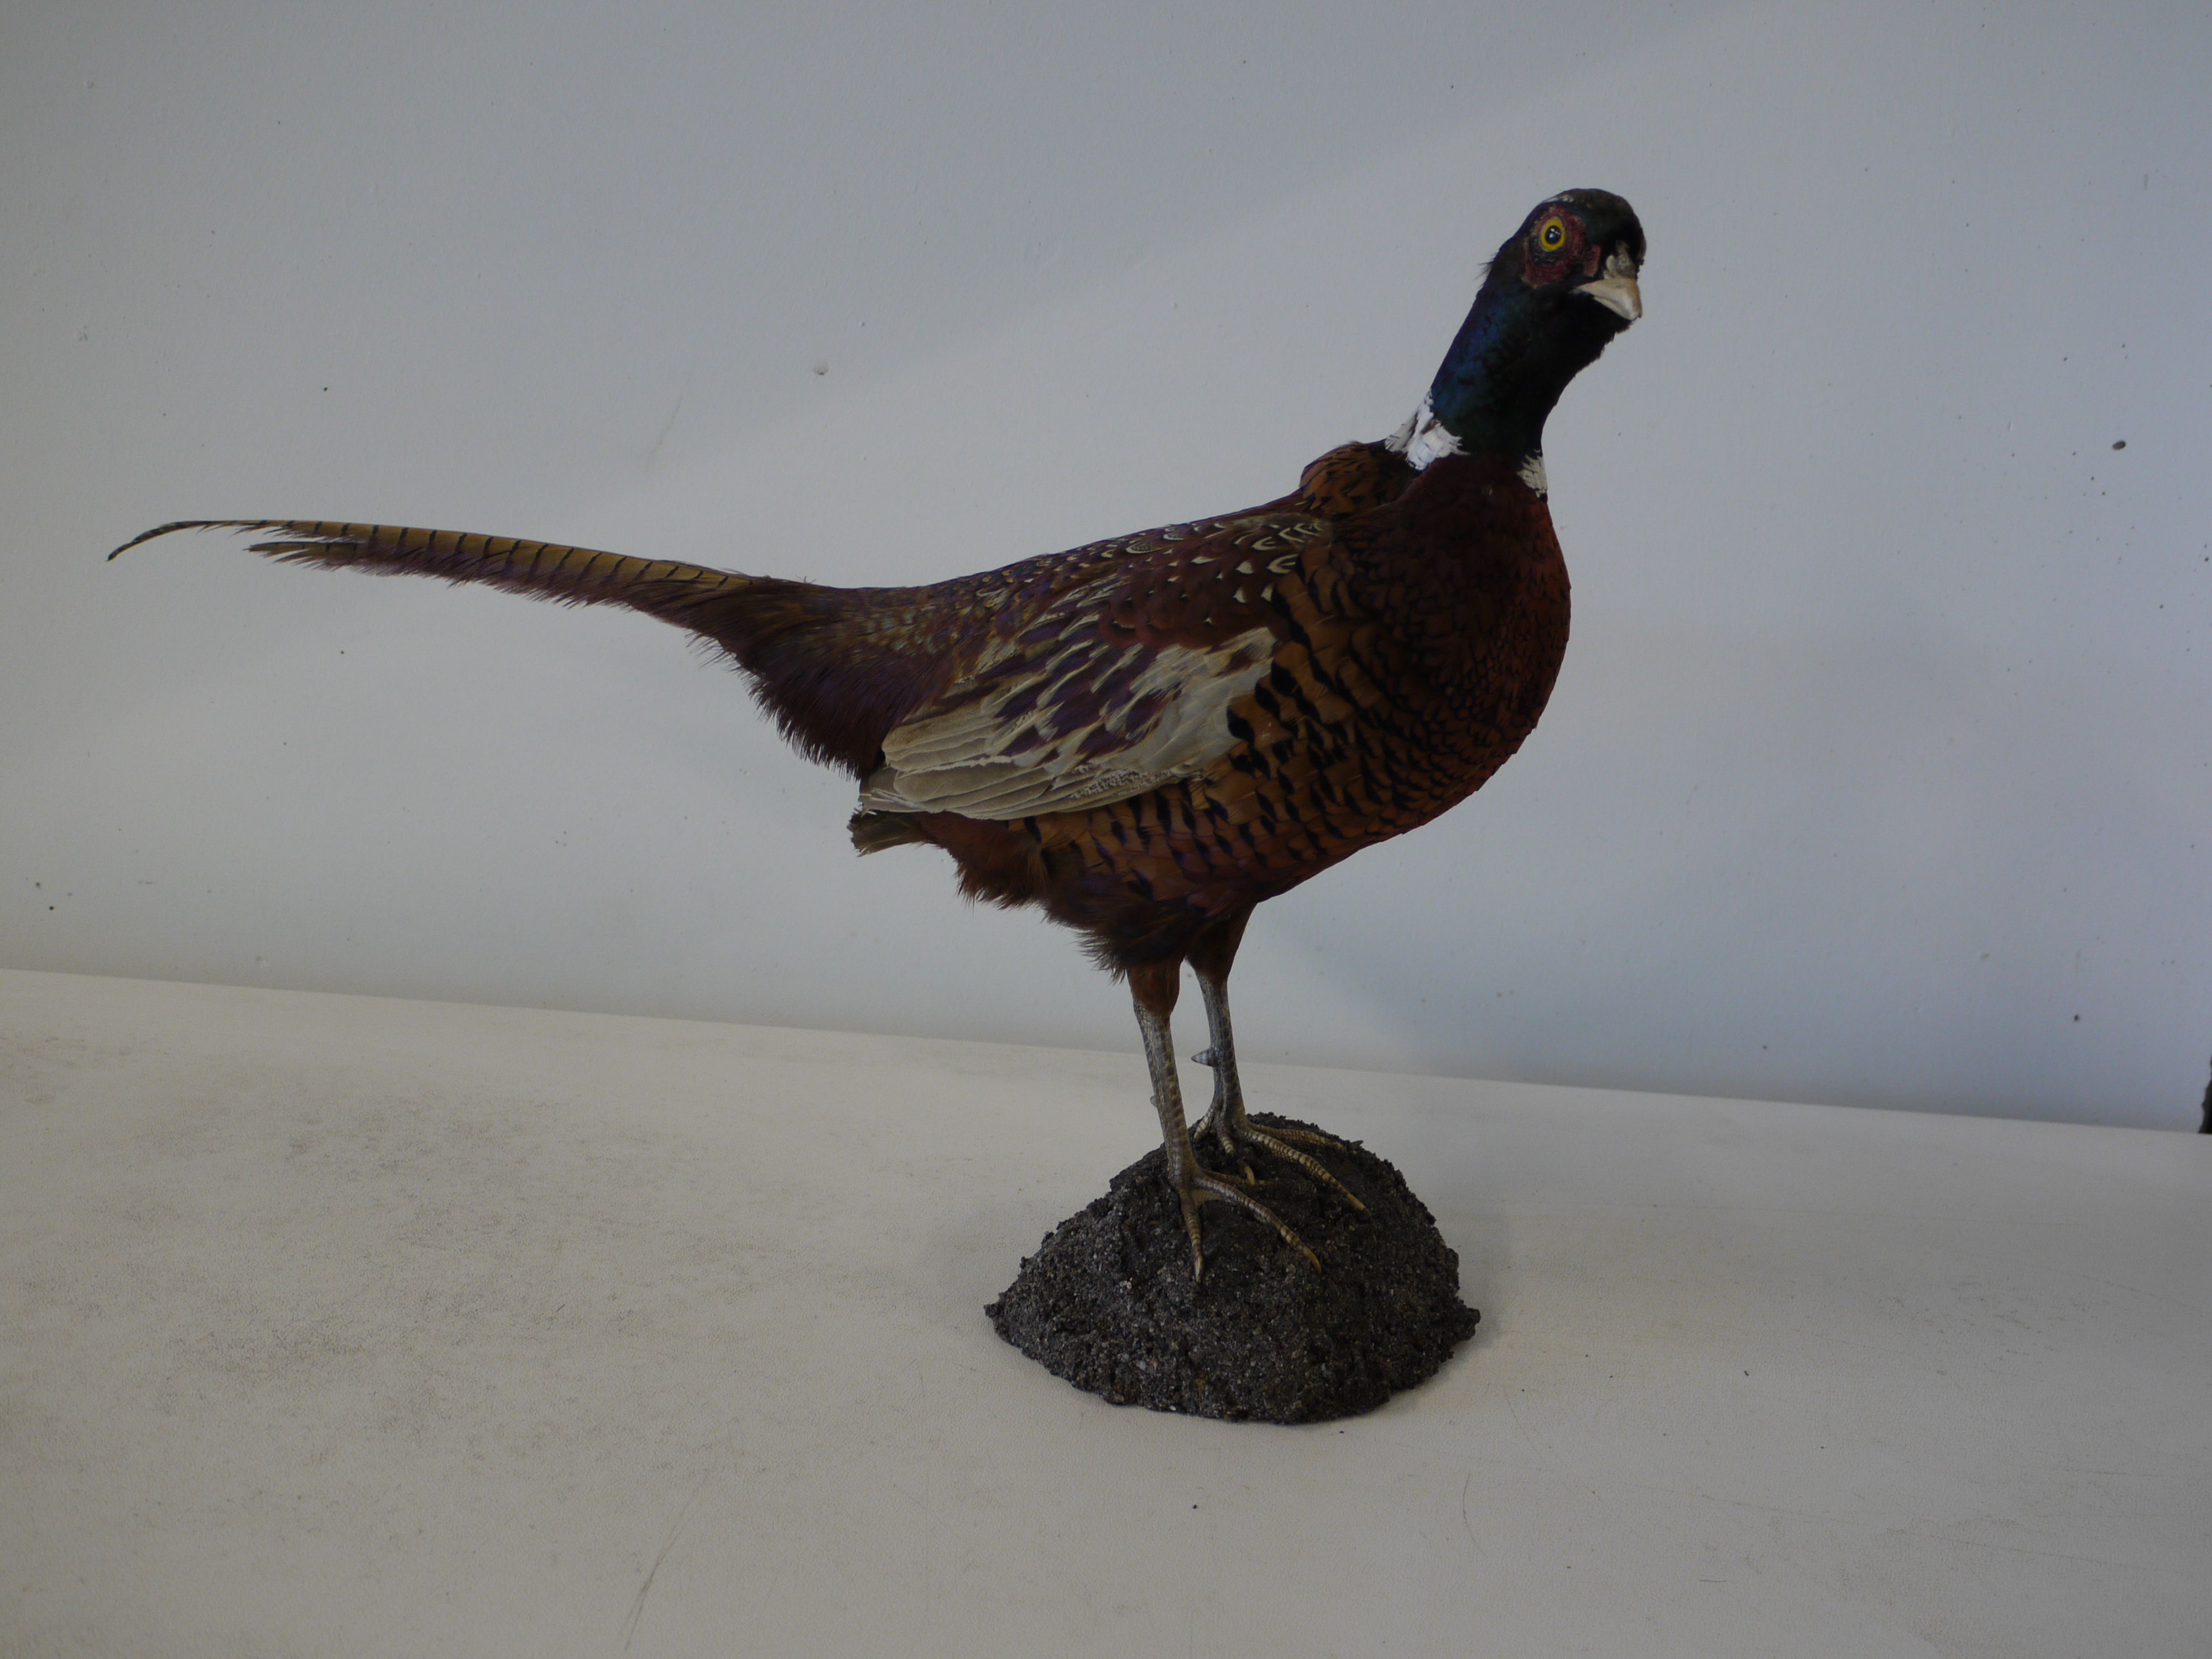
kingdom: Animalia
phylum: Chordata
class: Aves
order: Galliformes
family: Phasianidae
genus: Phasianus
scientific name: Phasianus colchicus
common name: Common pheasant
